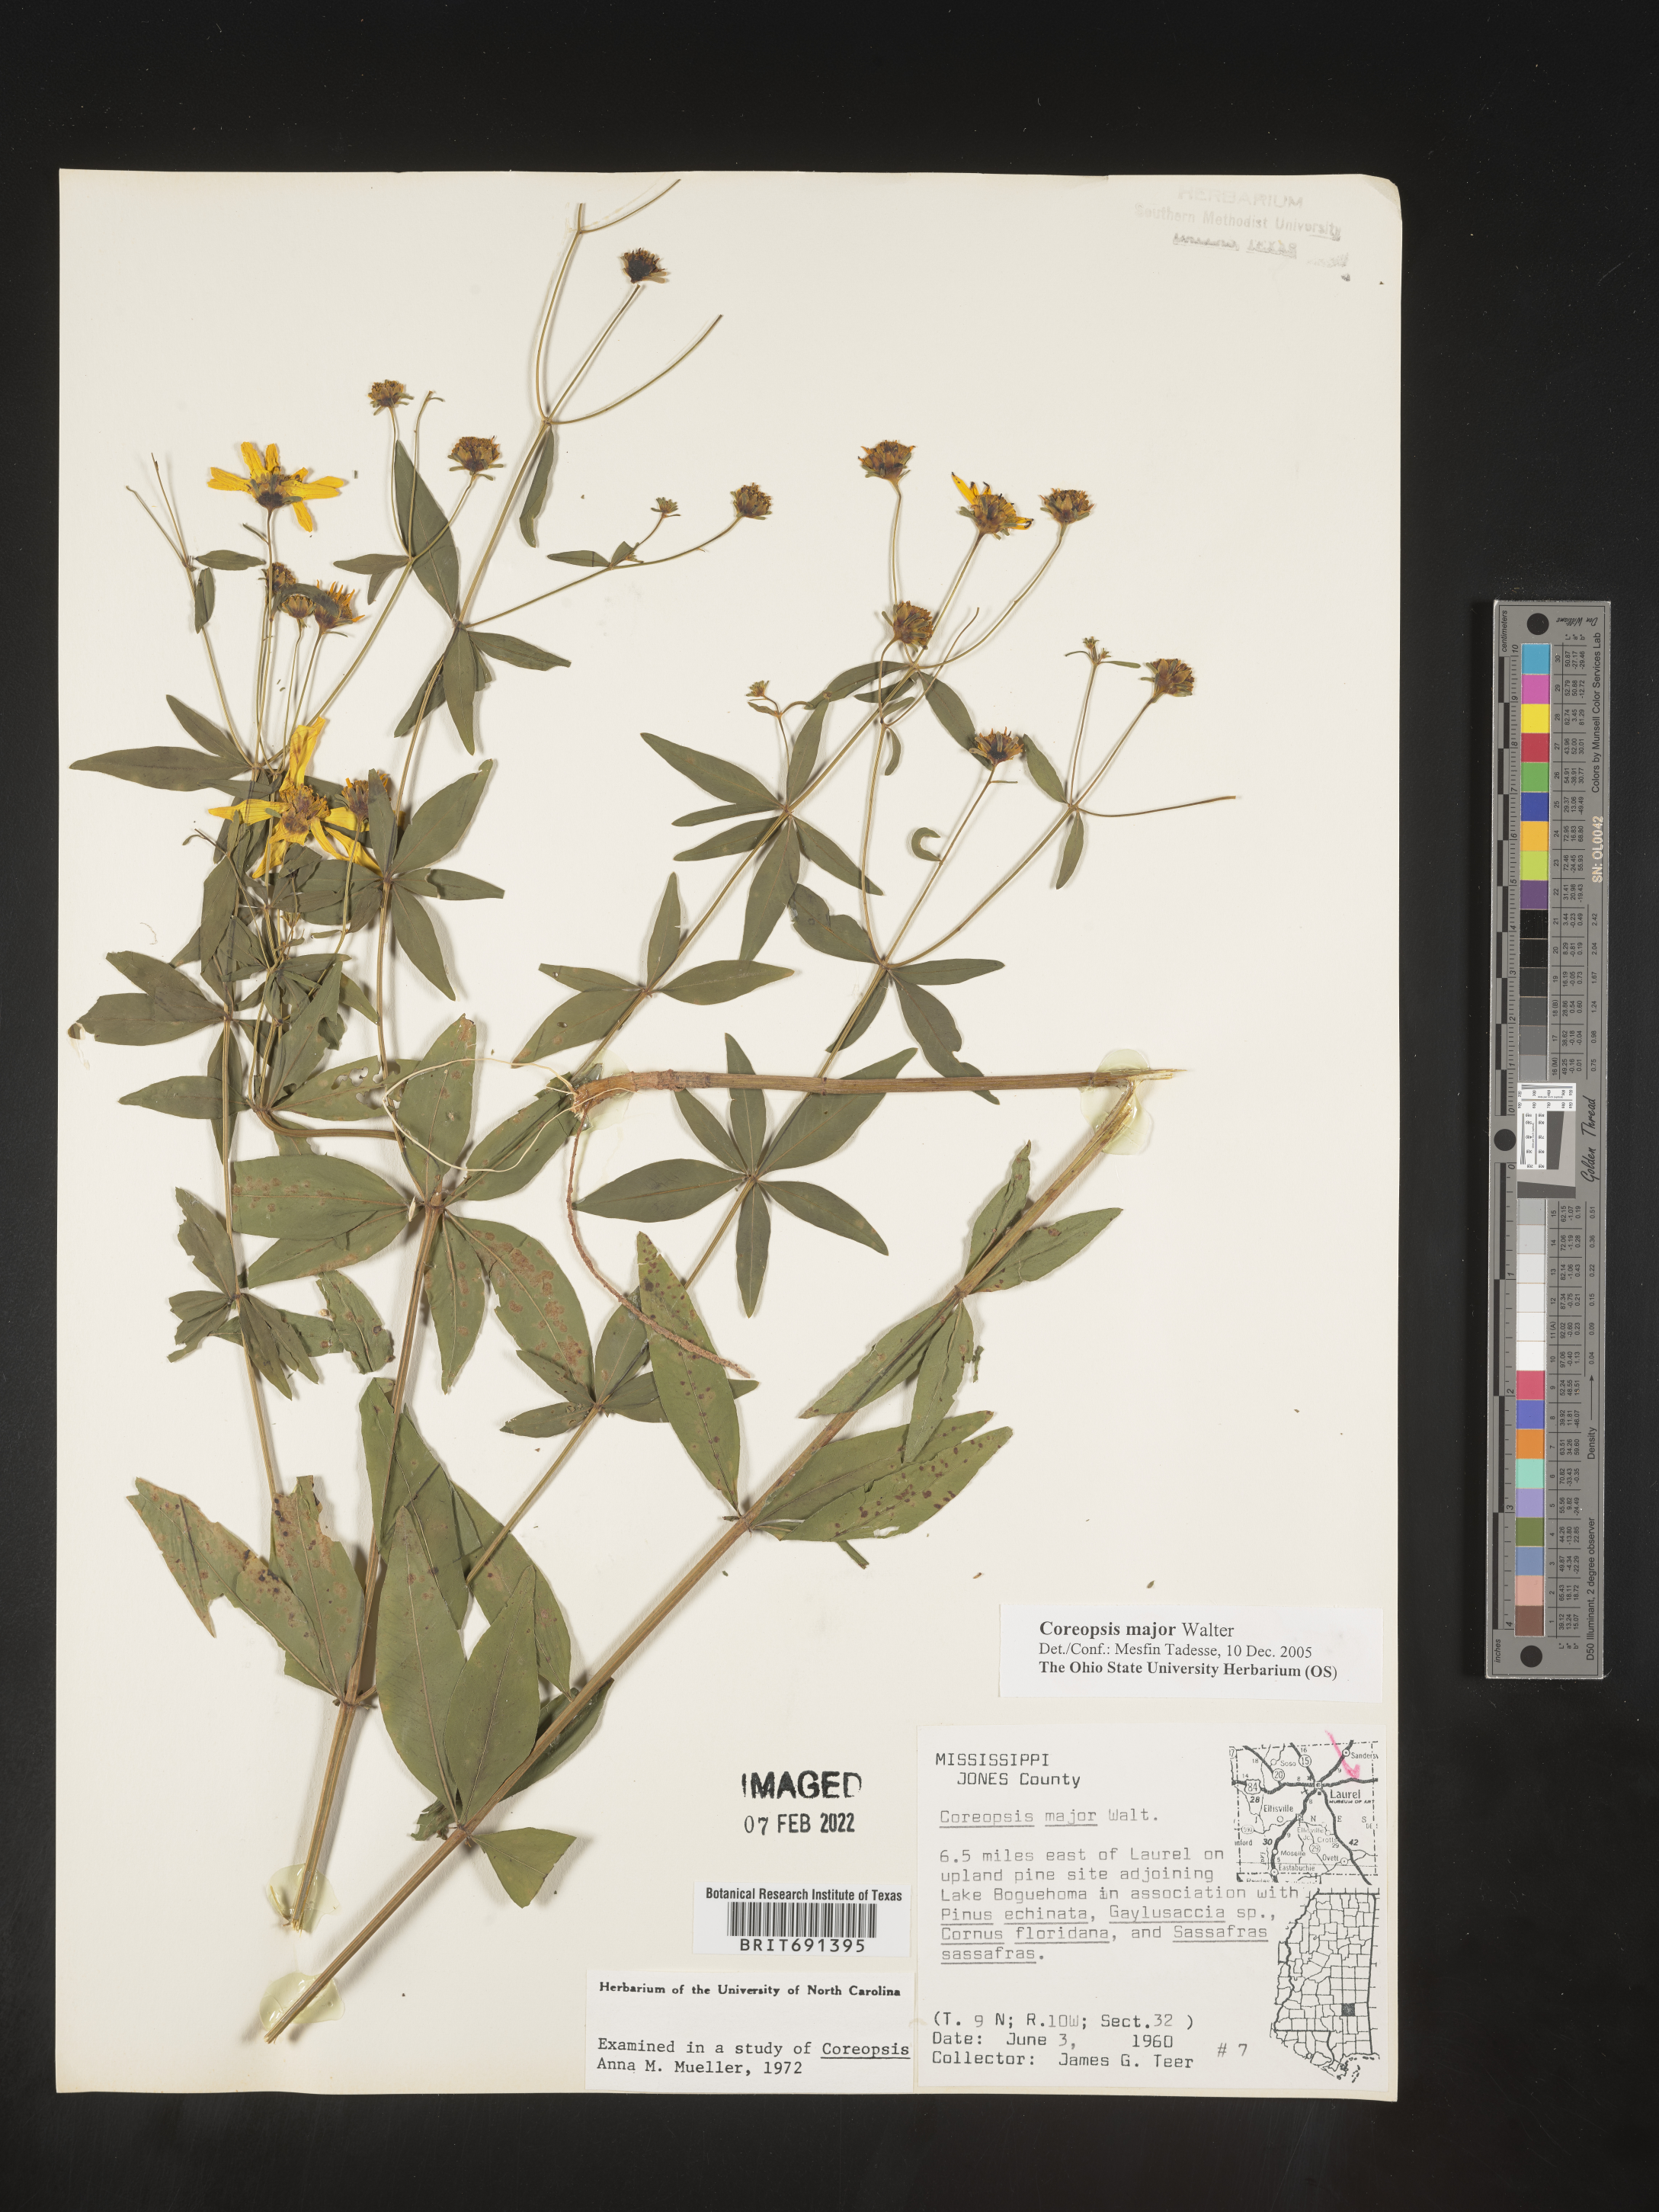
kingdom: Plantae
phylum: Tracheophyta
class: Magnoliopsida
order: Asterales
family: Asteraceae
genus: Coreopsis
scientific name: Coreopsis major
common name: Forest tickseed
